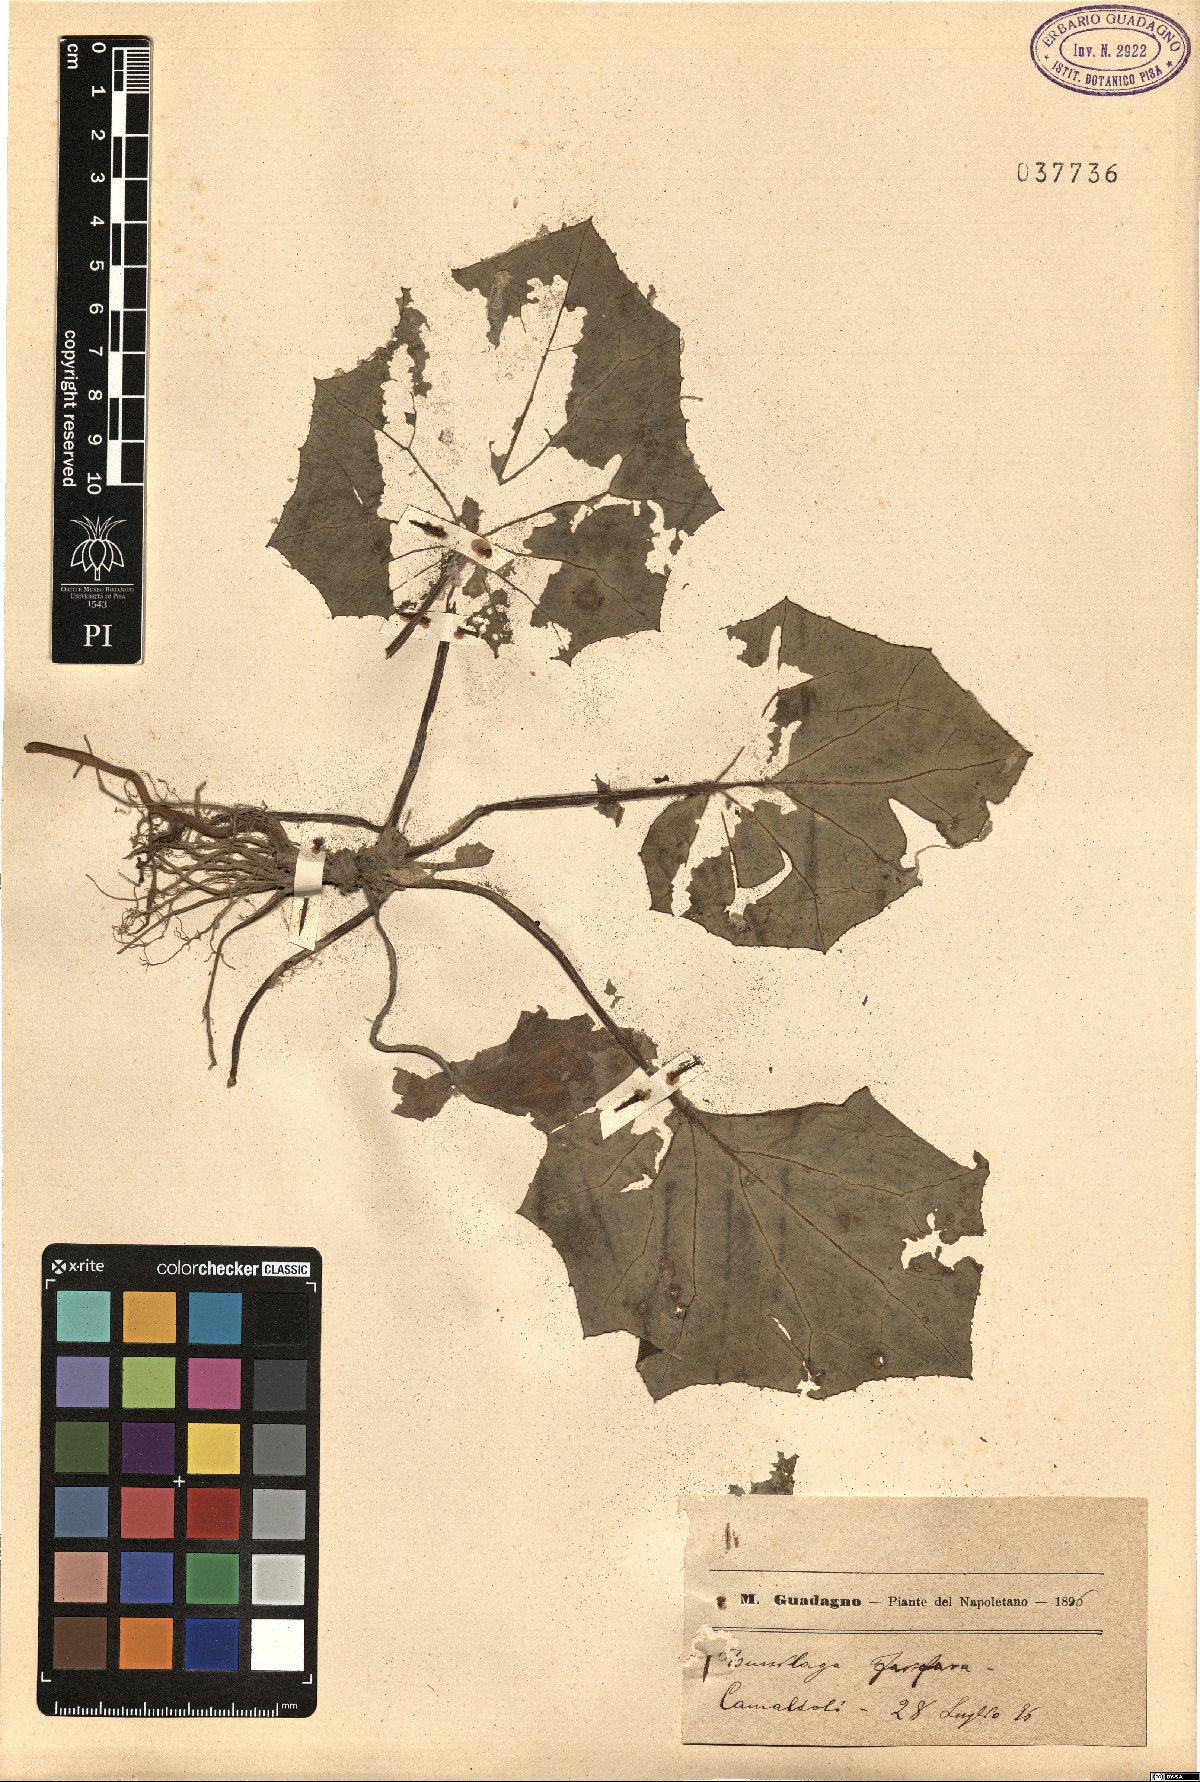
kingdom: Plantae
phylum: Tracheophyta
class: Magnoliopsida
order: Asterales
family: Asteraceae
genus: Tussilago
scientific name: Tussilago farfara
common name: Coltsfoot
